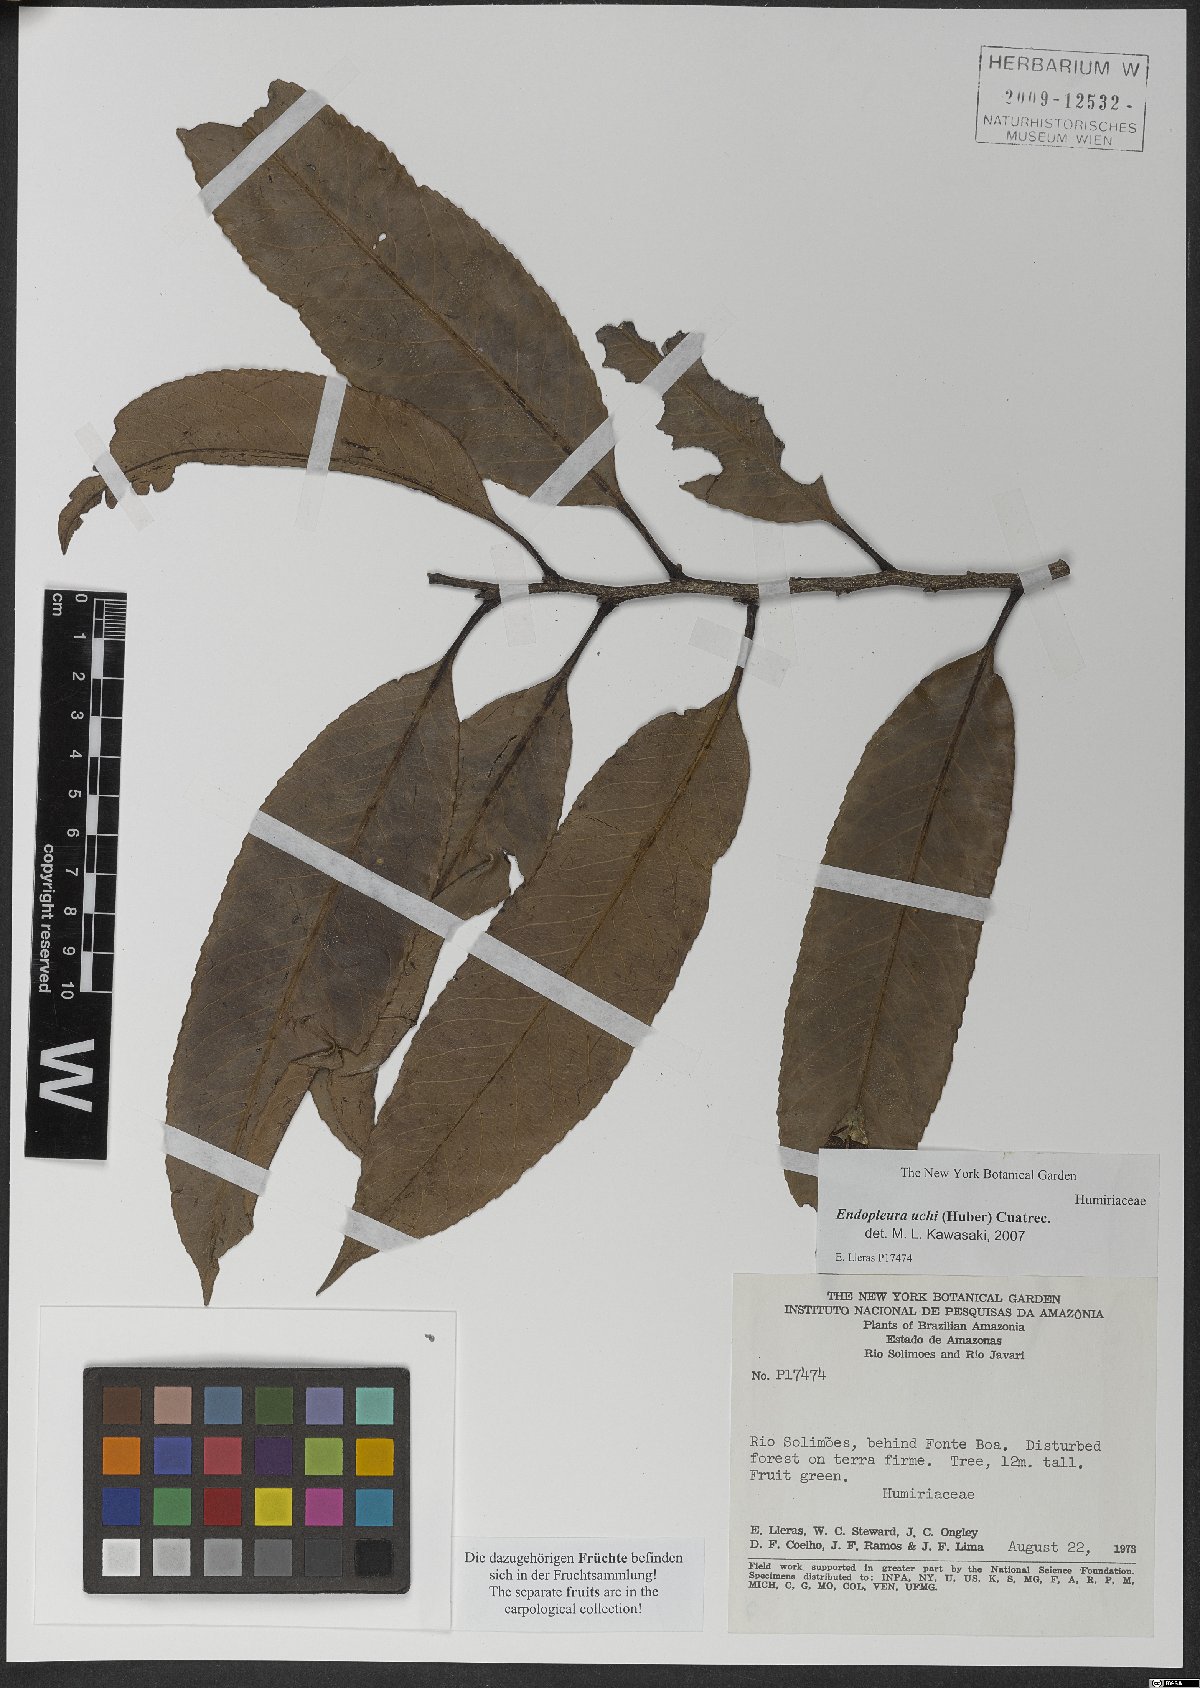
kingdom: Plantae
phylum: Tracheophyta
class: Magnoliopsida
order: Malpighiales
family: Humiriaceae
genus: Endopleura
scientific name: Endopleura uchi
